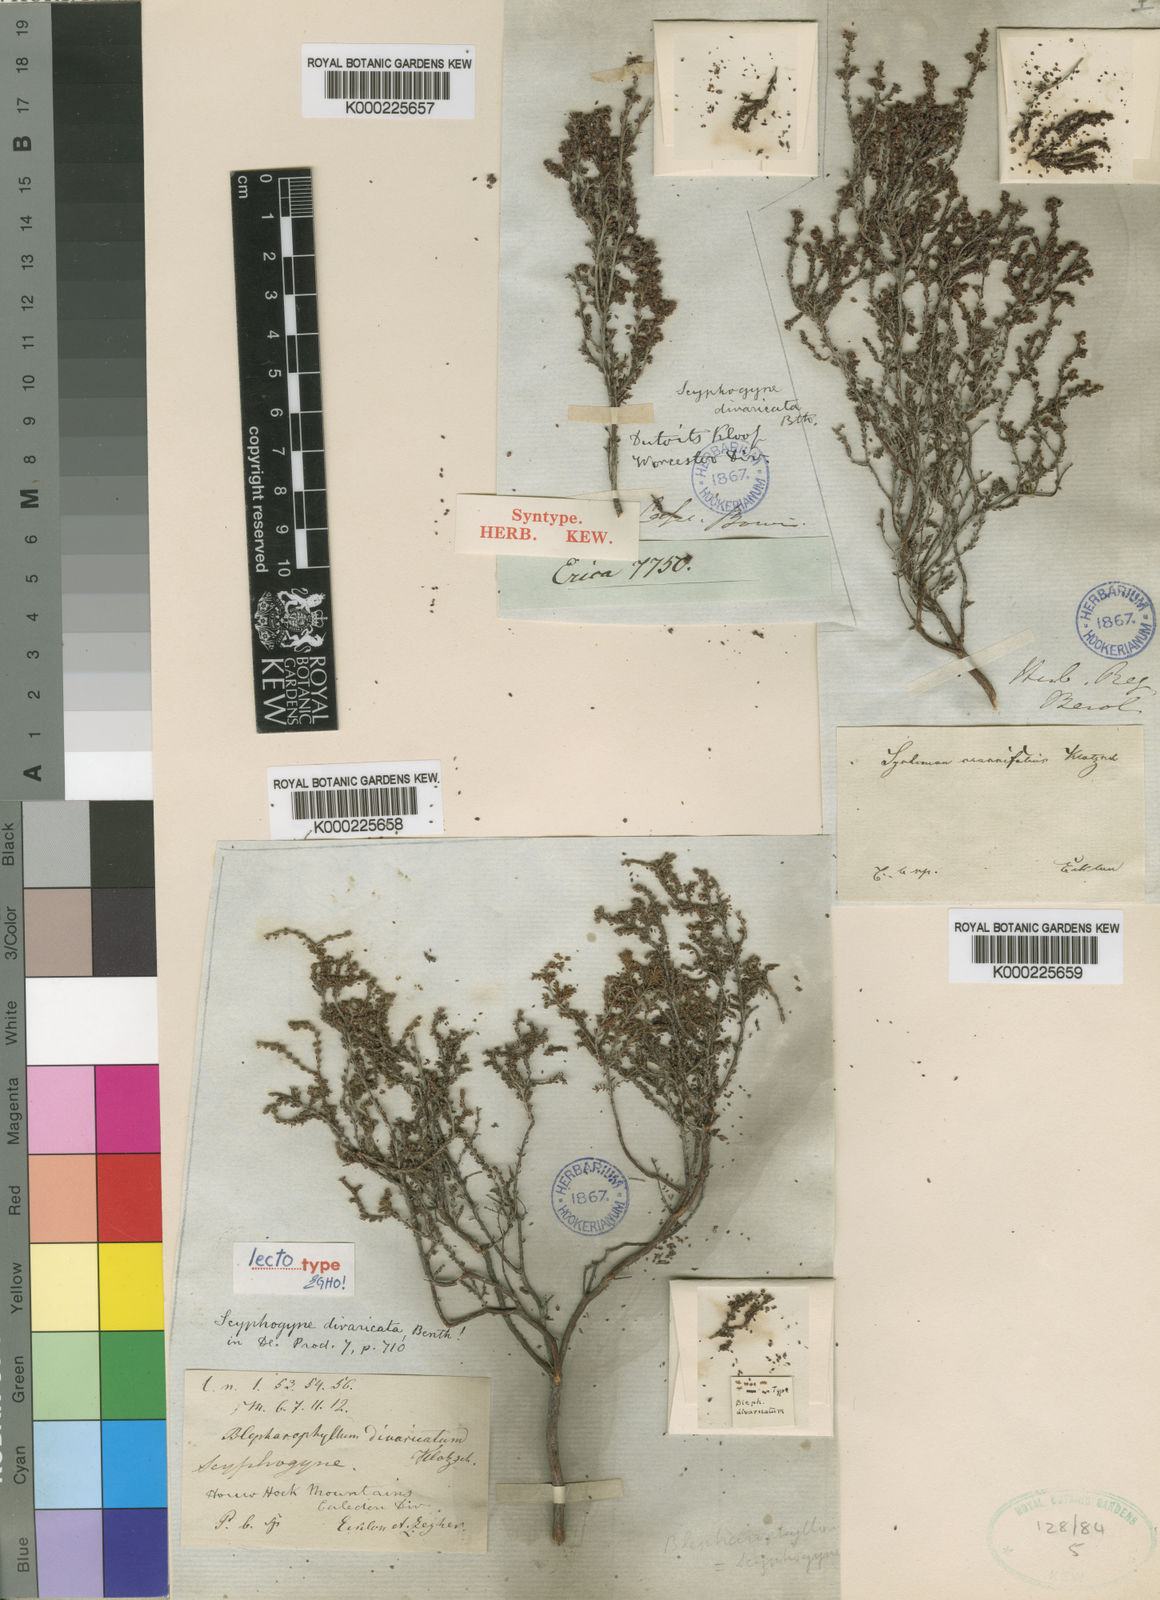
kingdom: Plantae
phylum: Tracheophyta
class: Magnoliopsida
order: Ericales
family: Ericaceae
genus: Erica
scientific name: Erica rigidula
